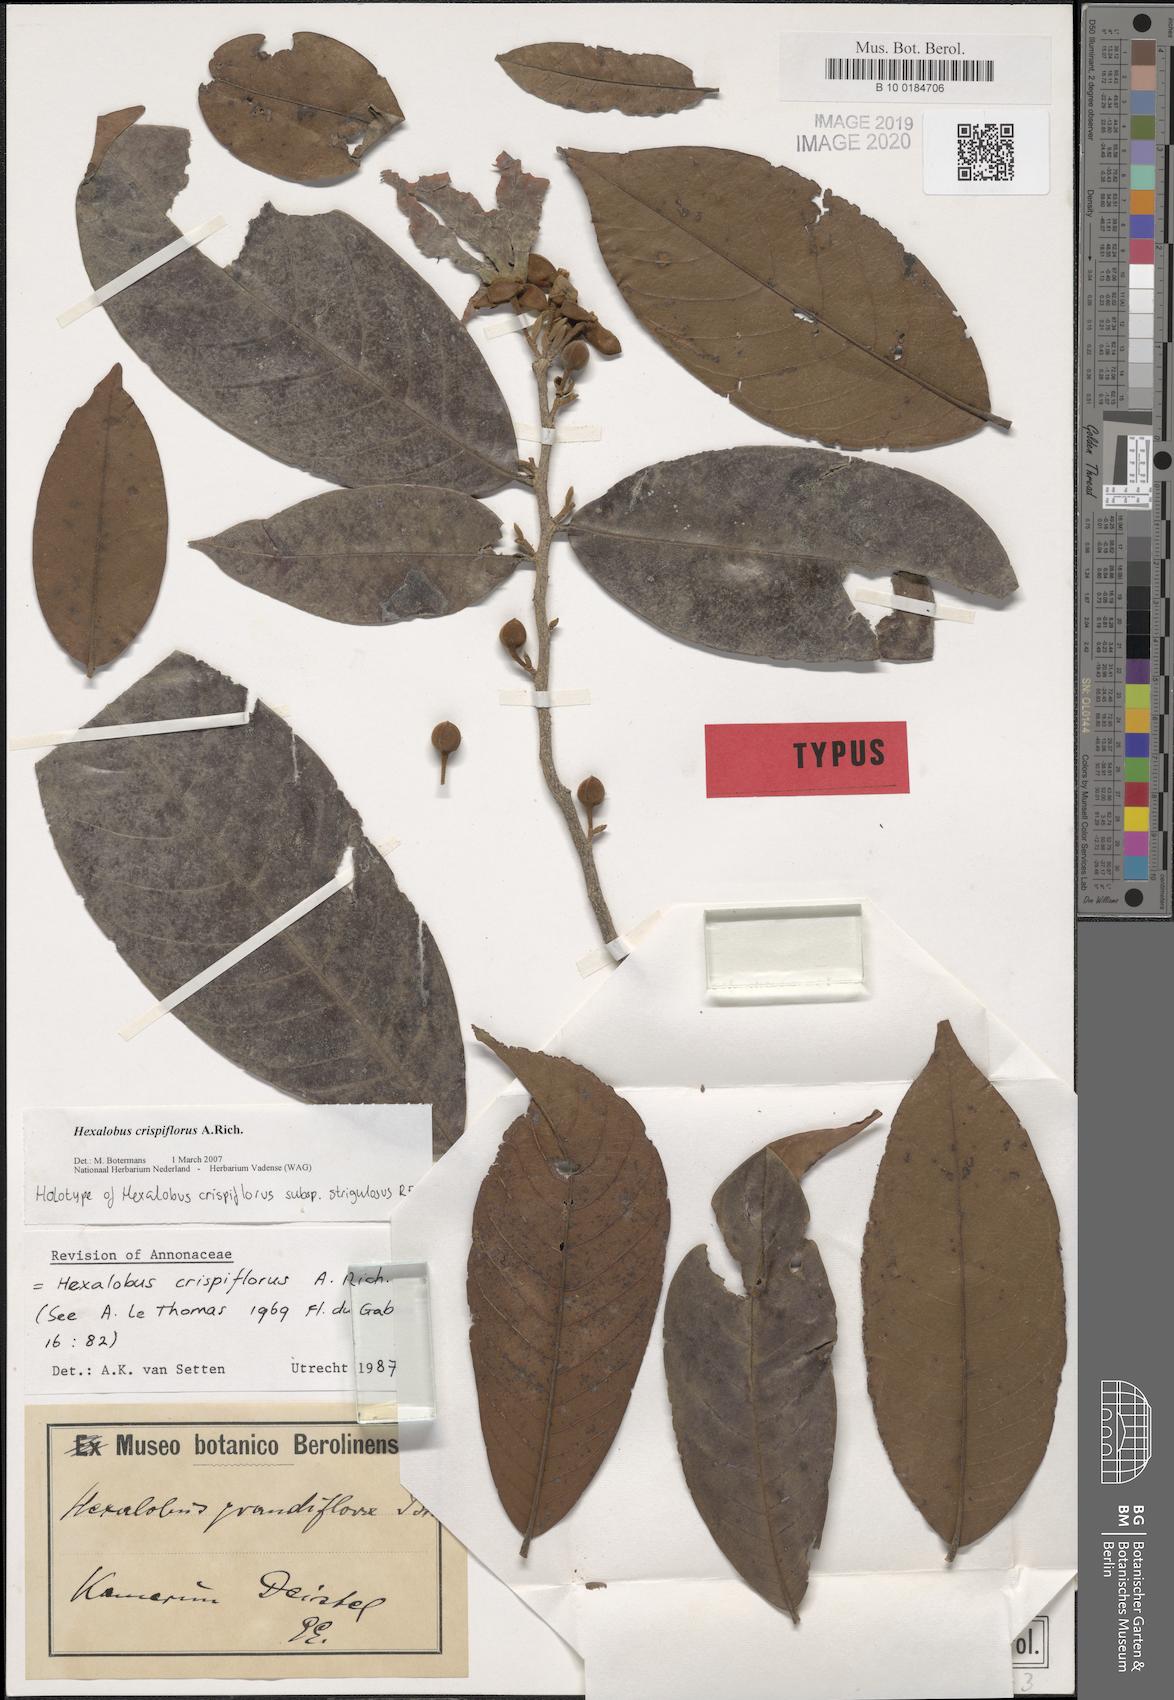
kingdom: Plantae
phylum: Tracheophyta
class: Magnoliopsida
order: Magnoliales
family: Annonaceae
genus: Hexalobus
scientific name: Hexalobus crispiflorus
